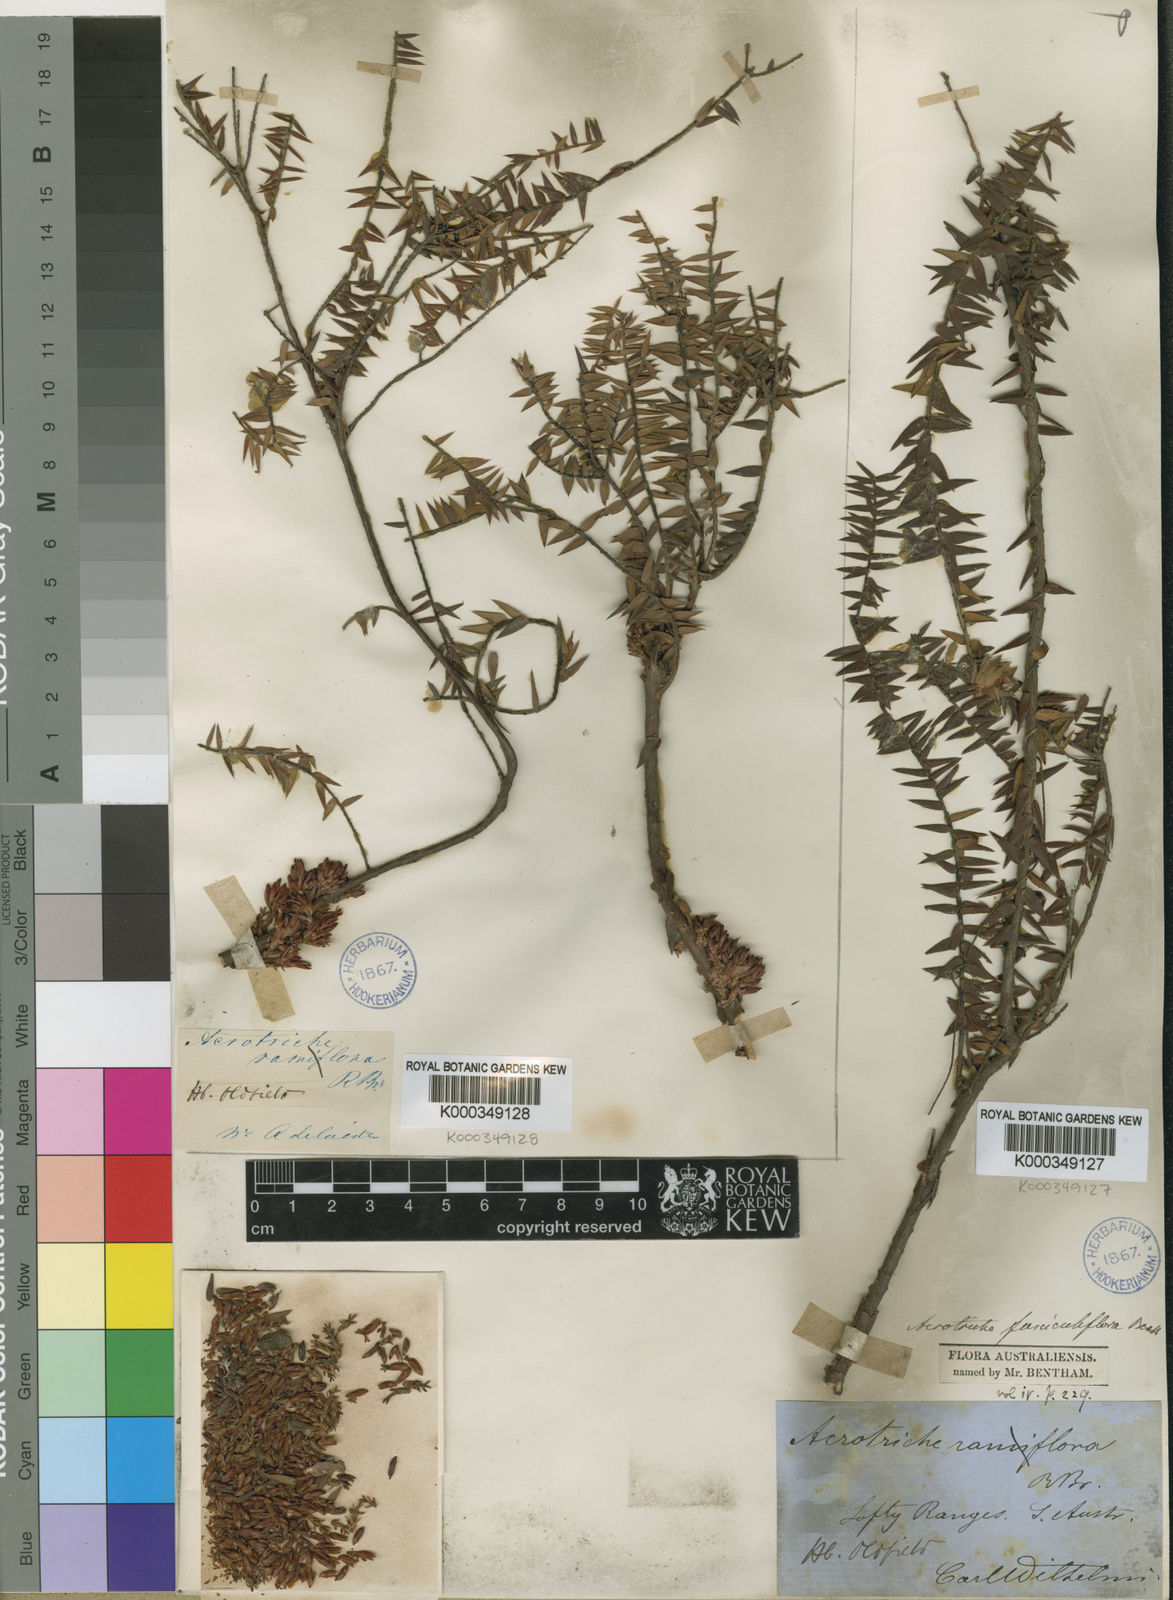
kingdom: Plantae
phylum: Tracheophyta
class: Magnoliopsida
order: Ericales
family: Ericaceae
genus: Acrotriche
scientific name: Acrotriche ramiflora
